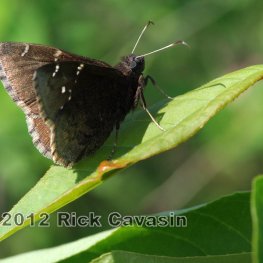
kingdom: Animalia
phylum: Arthropoda
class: Insecta
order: Lepidoptera
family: Hesperiidae
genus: Autochton
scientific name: Autochton
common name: Northern Cloudywing
